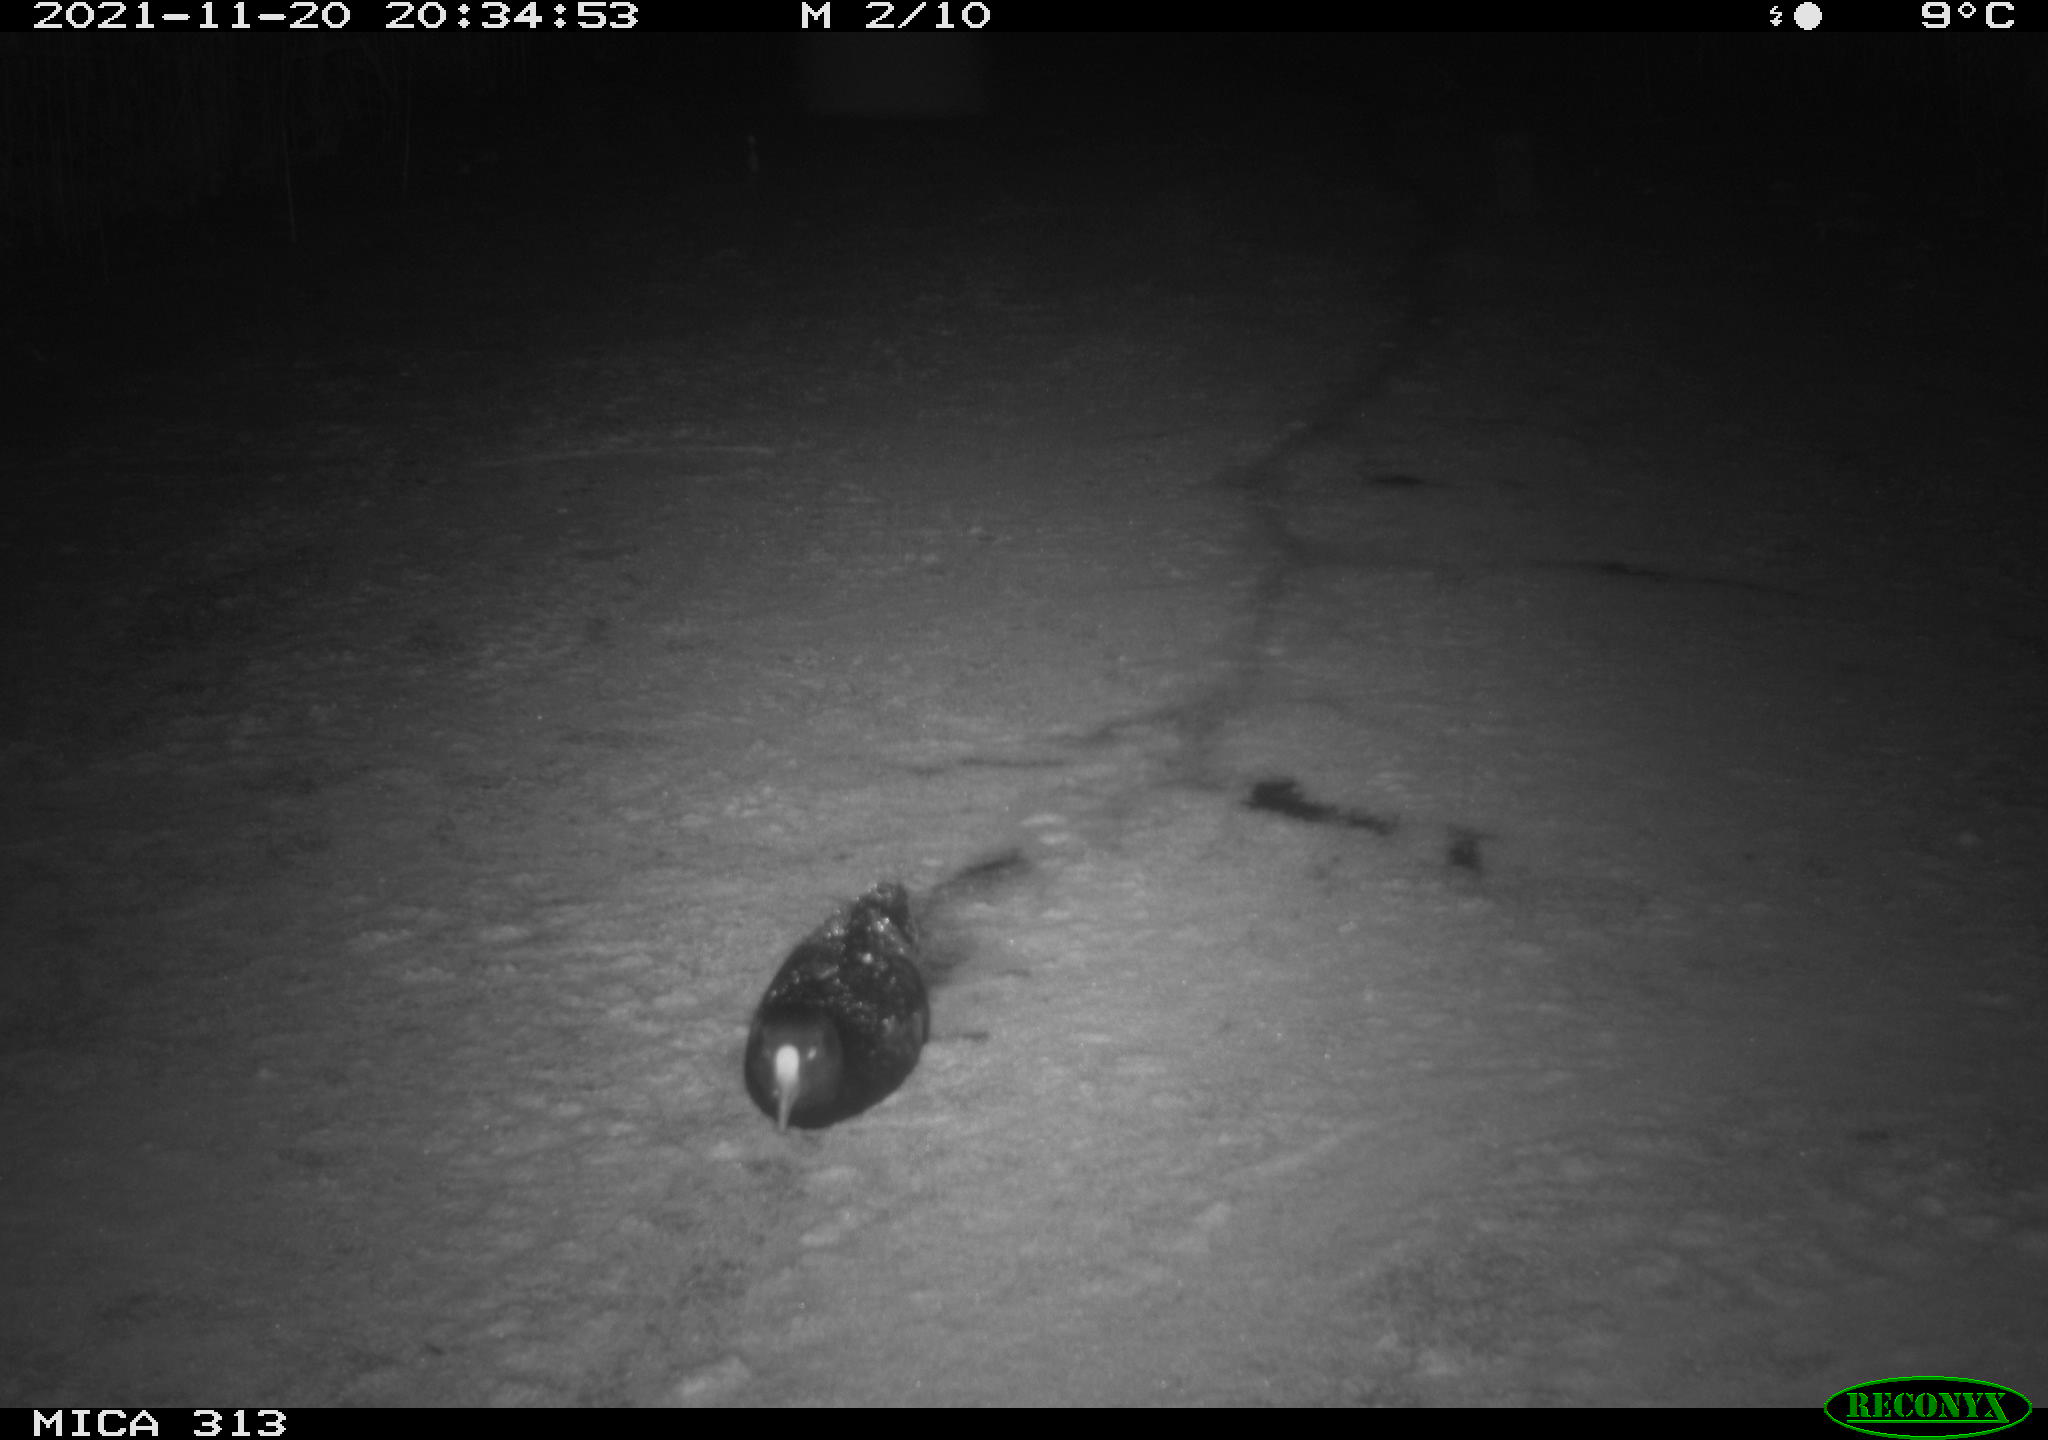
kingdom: Animalia
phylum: Chordata
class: Aves
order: Gruiformes
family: Rallidae
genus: Gallinula
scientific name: Gallinula chloropus
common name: Common moorhen
